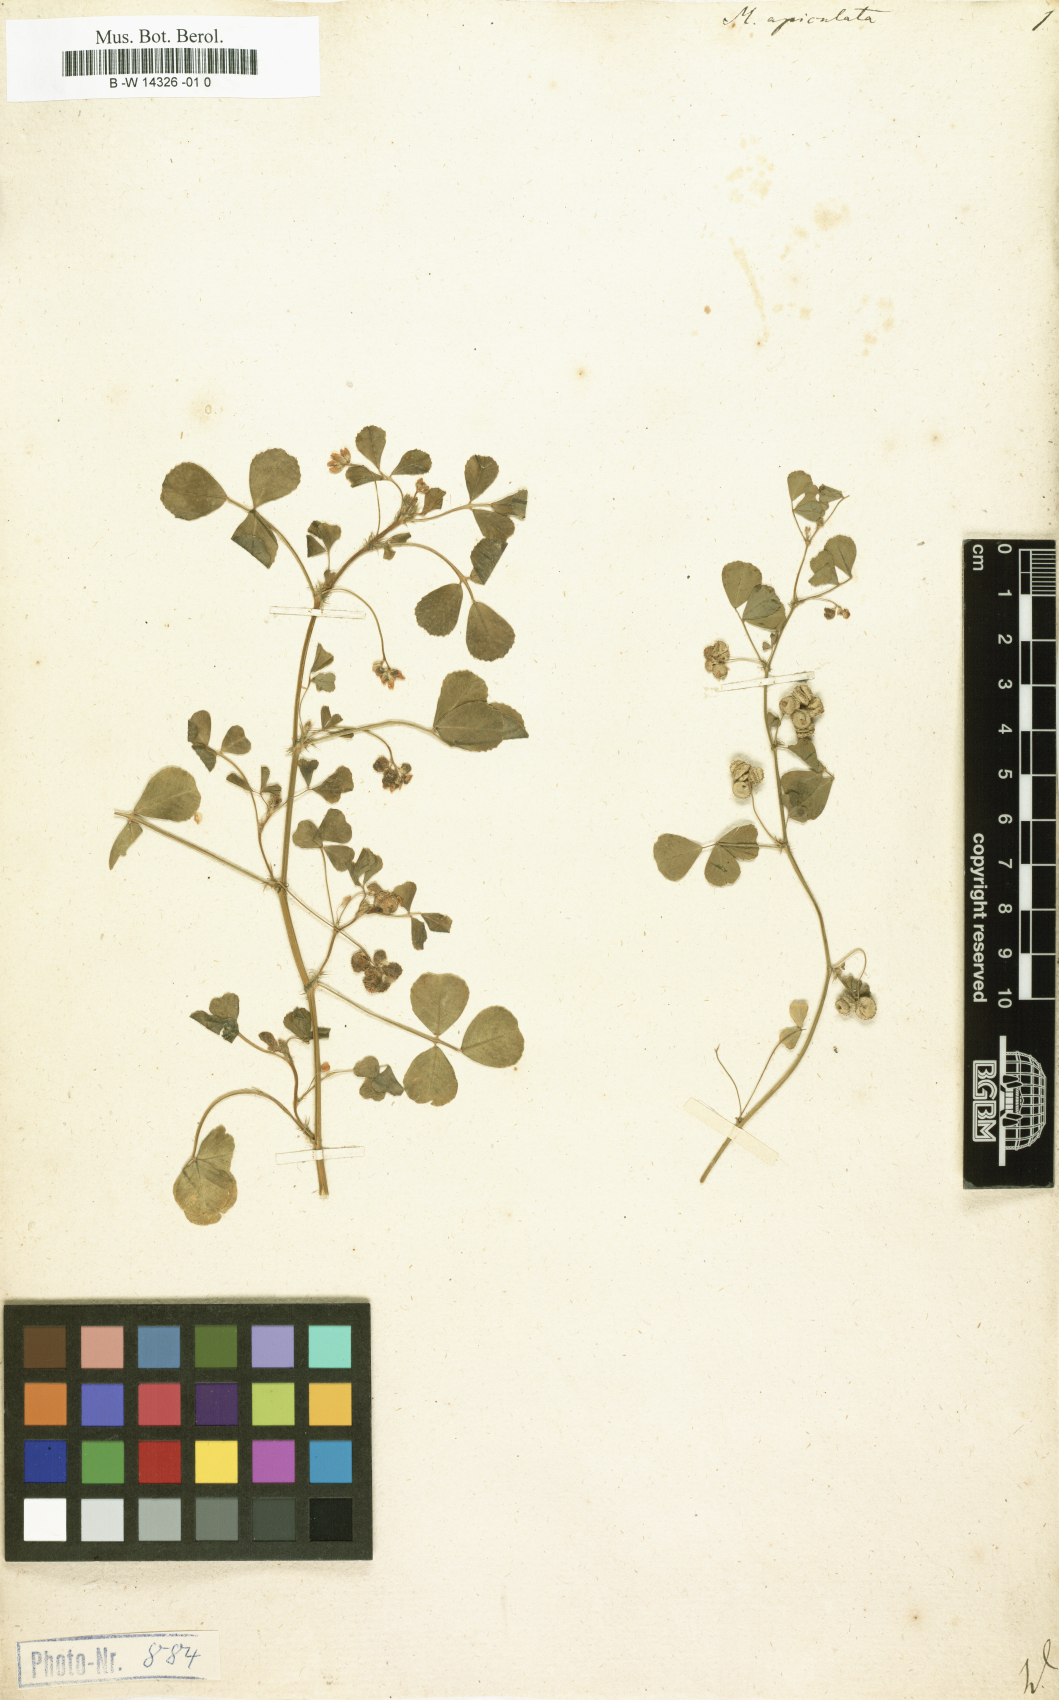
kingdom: Plantae
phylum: Tracheophyta
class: Magnoliopsida
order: Fabales
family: Fabaceae
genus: Medicago
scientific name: Medicago polymorpha
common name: Burclover
